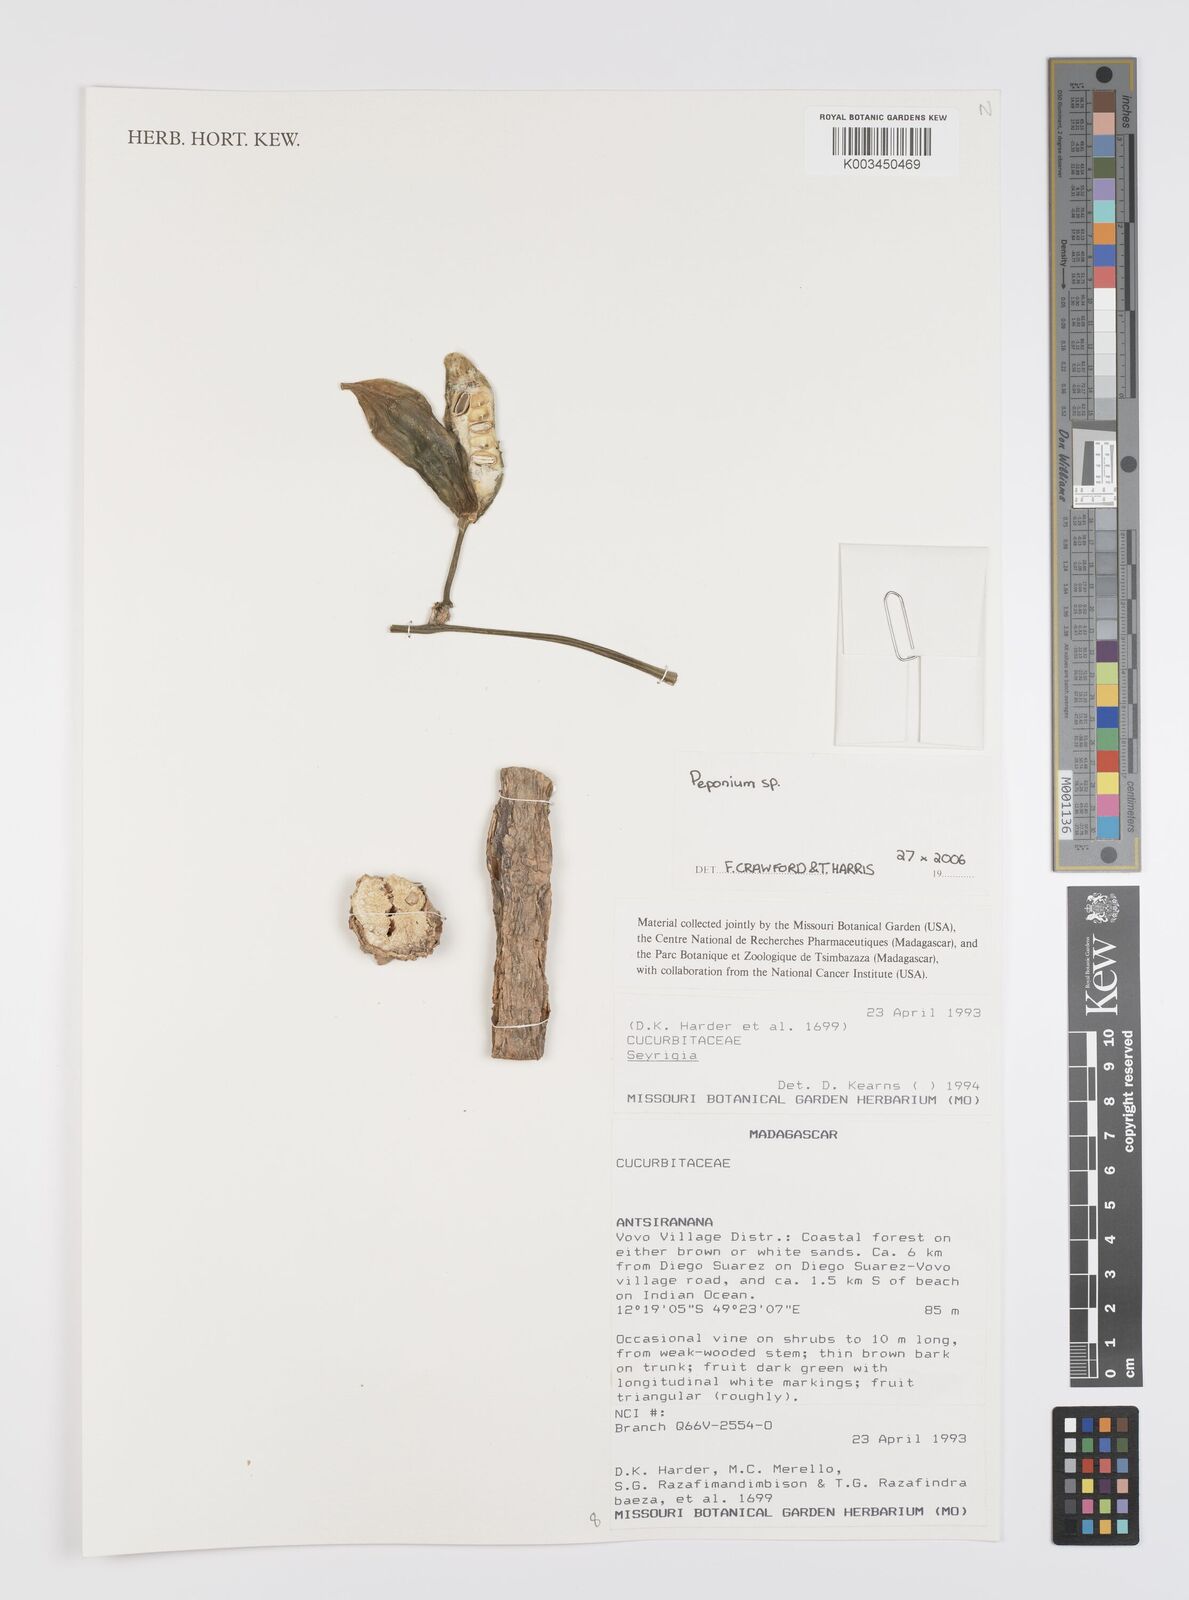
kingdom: Plantae
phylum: Tracheophyta
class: Magnoliopsida
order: Cucurbitales
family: Cucurbitaceae
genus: Peponium
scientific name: Peponium
